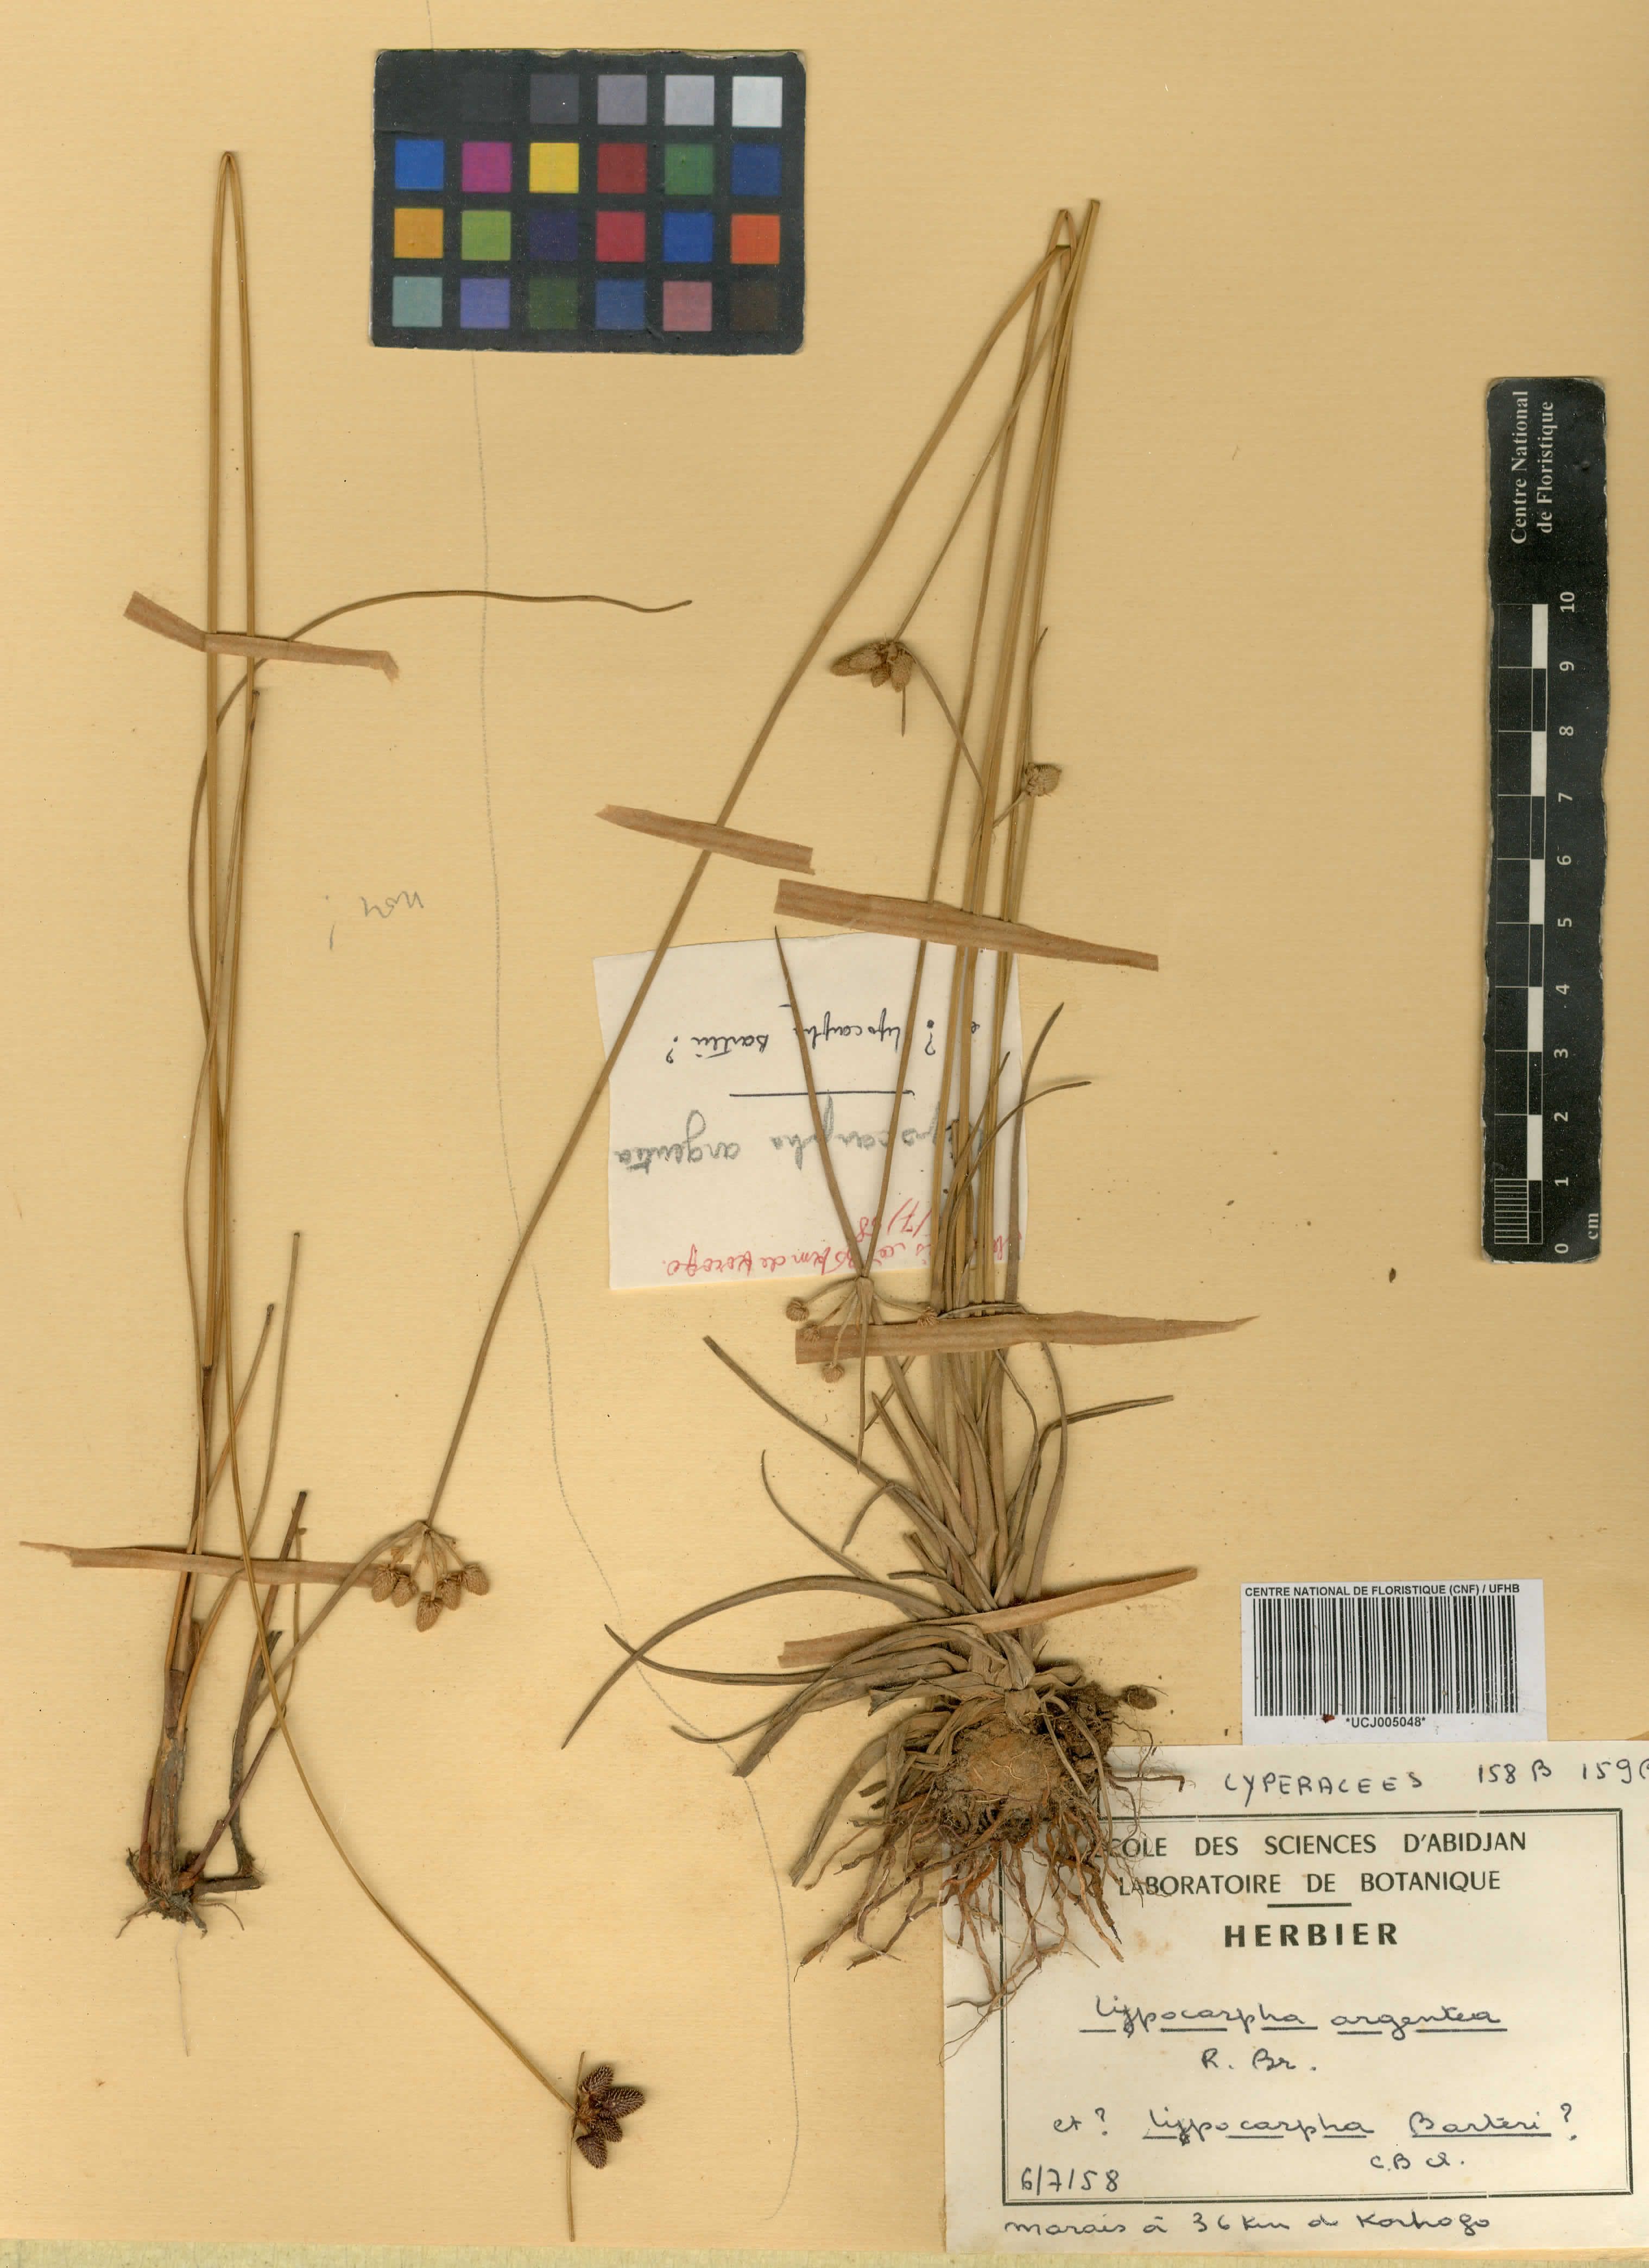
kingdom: Plantae
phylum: Tracheophyta
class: Liliopsida
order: Poales
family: Cyperaceae
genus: Cyperus
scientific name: Cyperus
